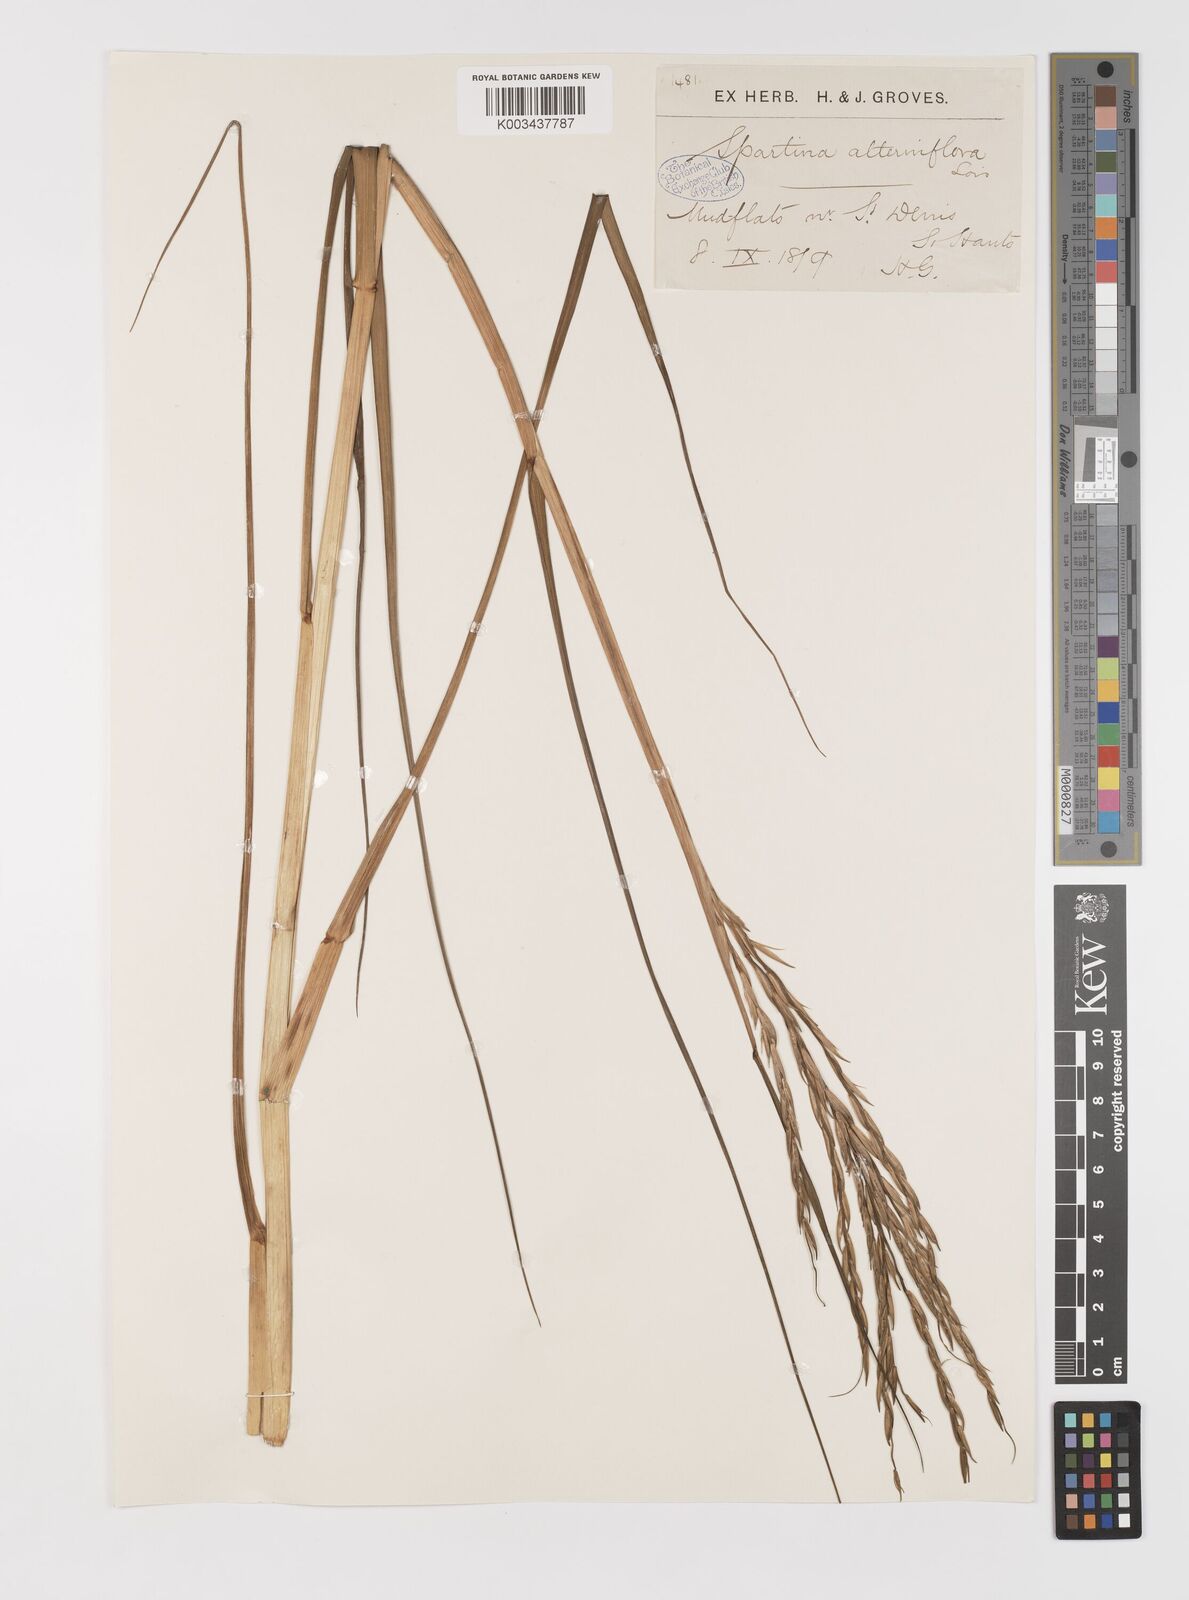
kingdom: Plantae
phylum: Tracheophyta
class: Liliopsida
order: Poales
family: Poaceae
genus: Sporobolus
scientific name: Sporobolus alterniflorus
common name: Atlantic cordgrass
